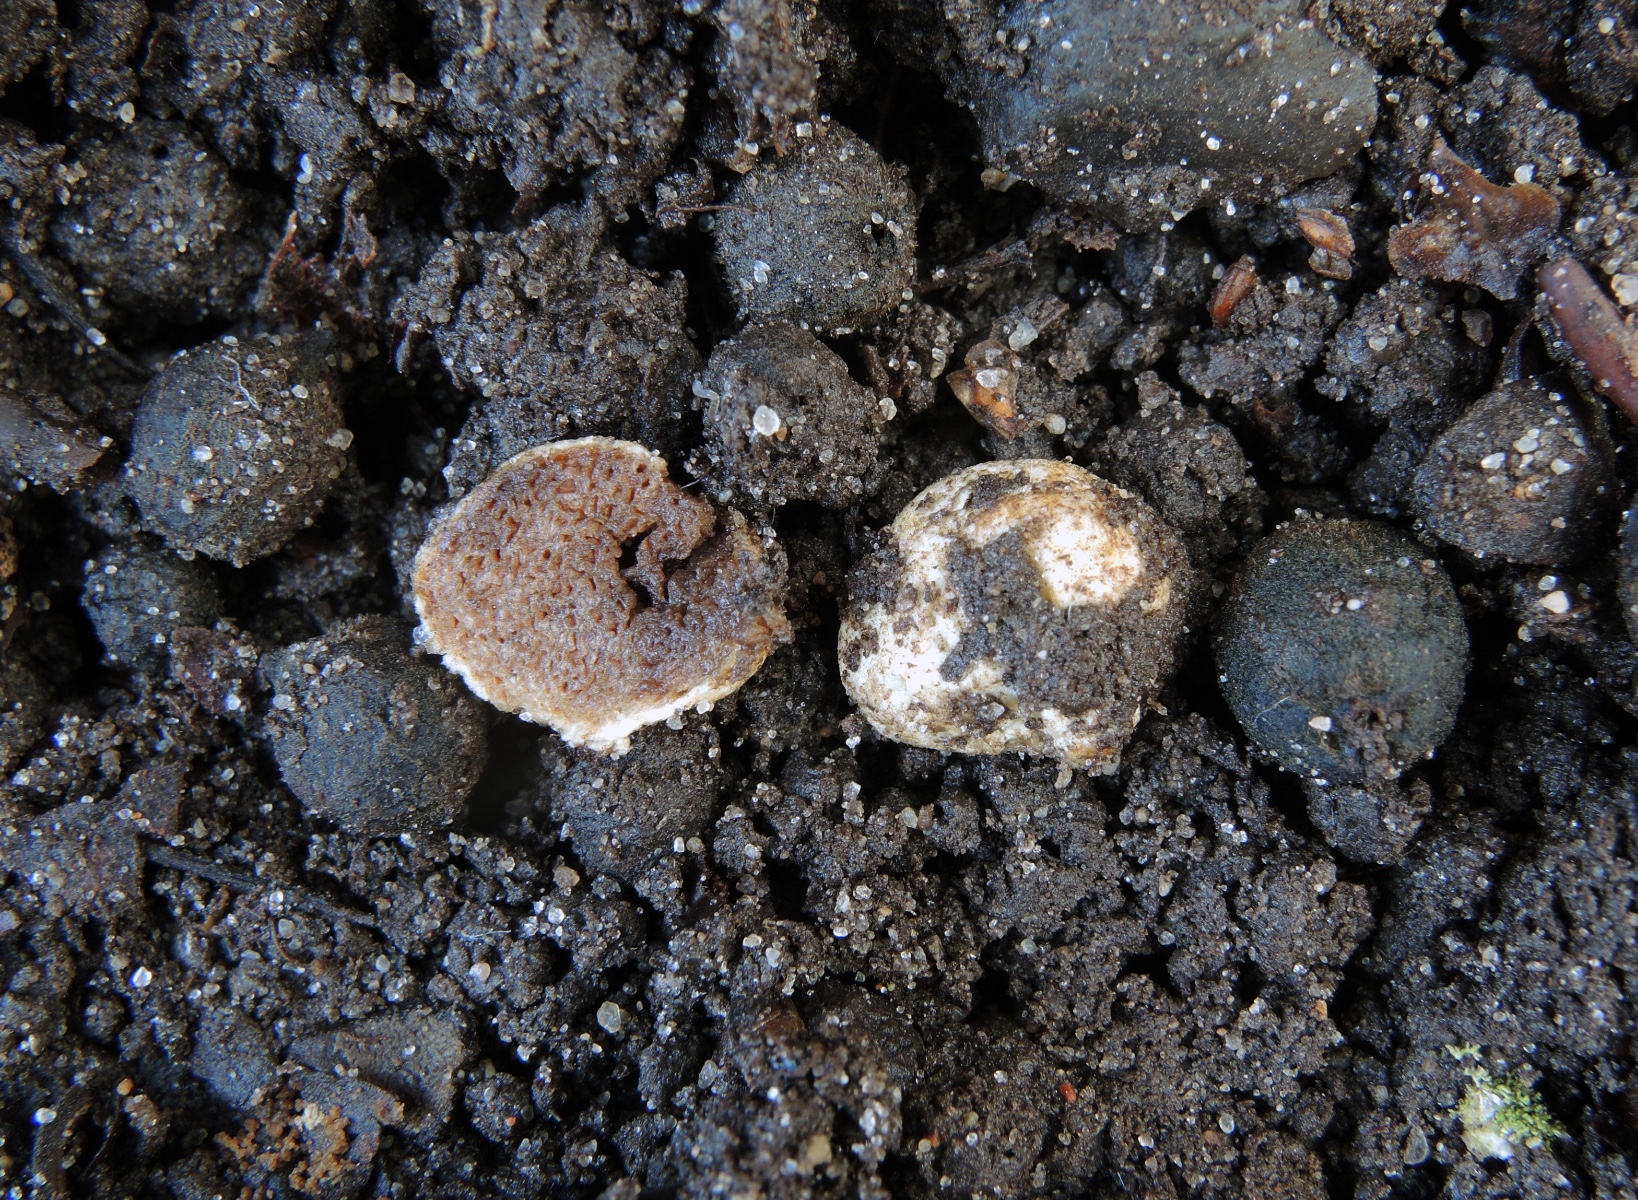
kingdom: Fungi
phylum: Basidiomycota
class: Agaricomycetes
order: Agaricales
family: Hymenogastraceae
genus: Hymenogaster
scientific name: Hymenogaster
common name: knoldtrøffel
